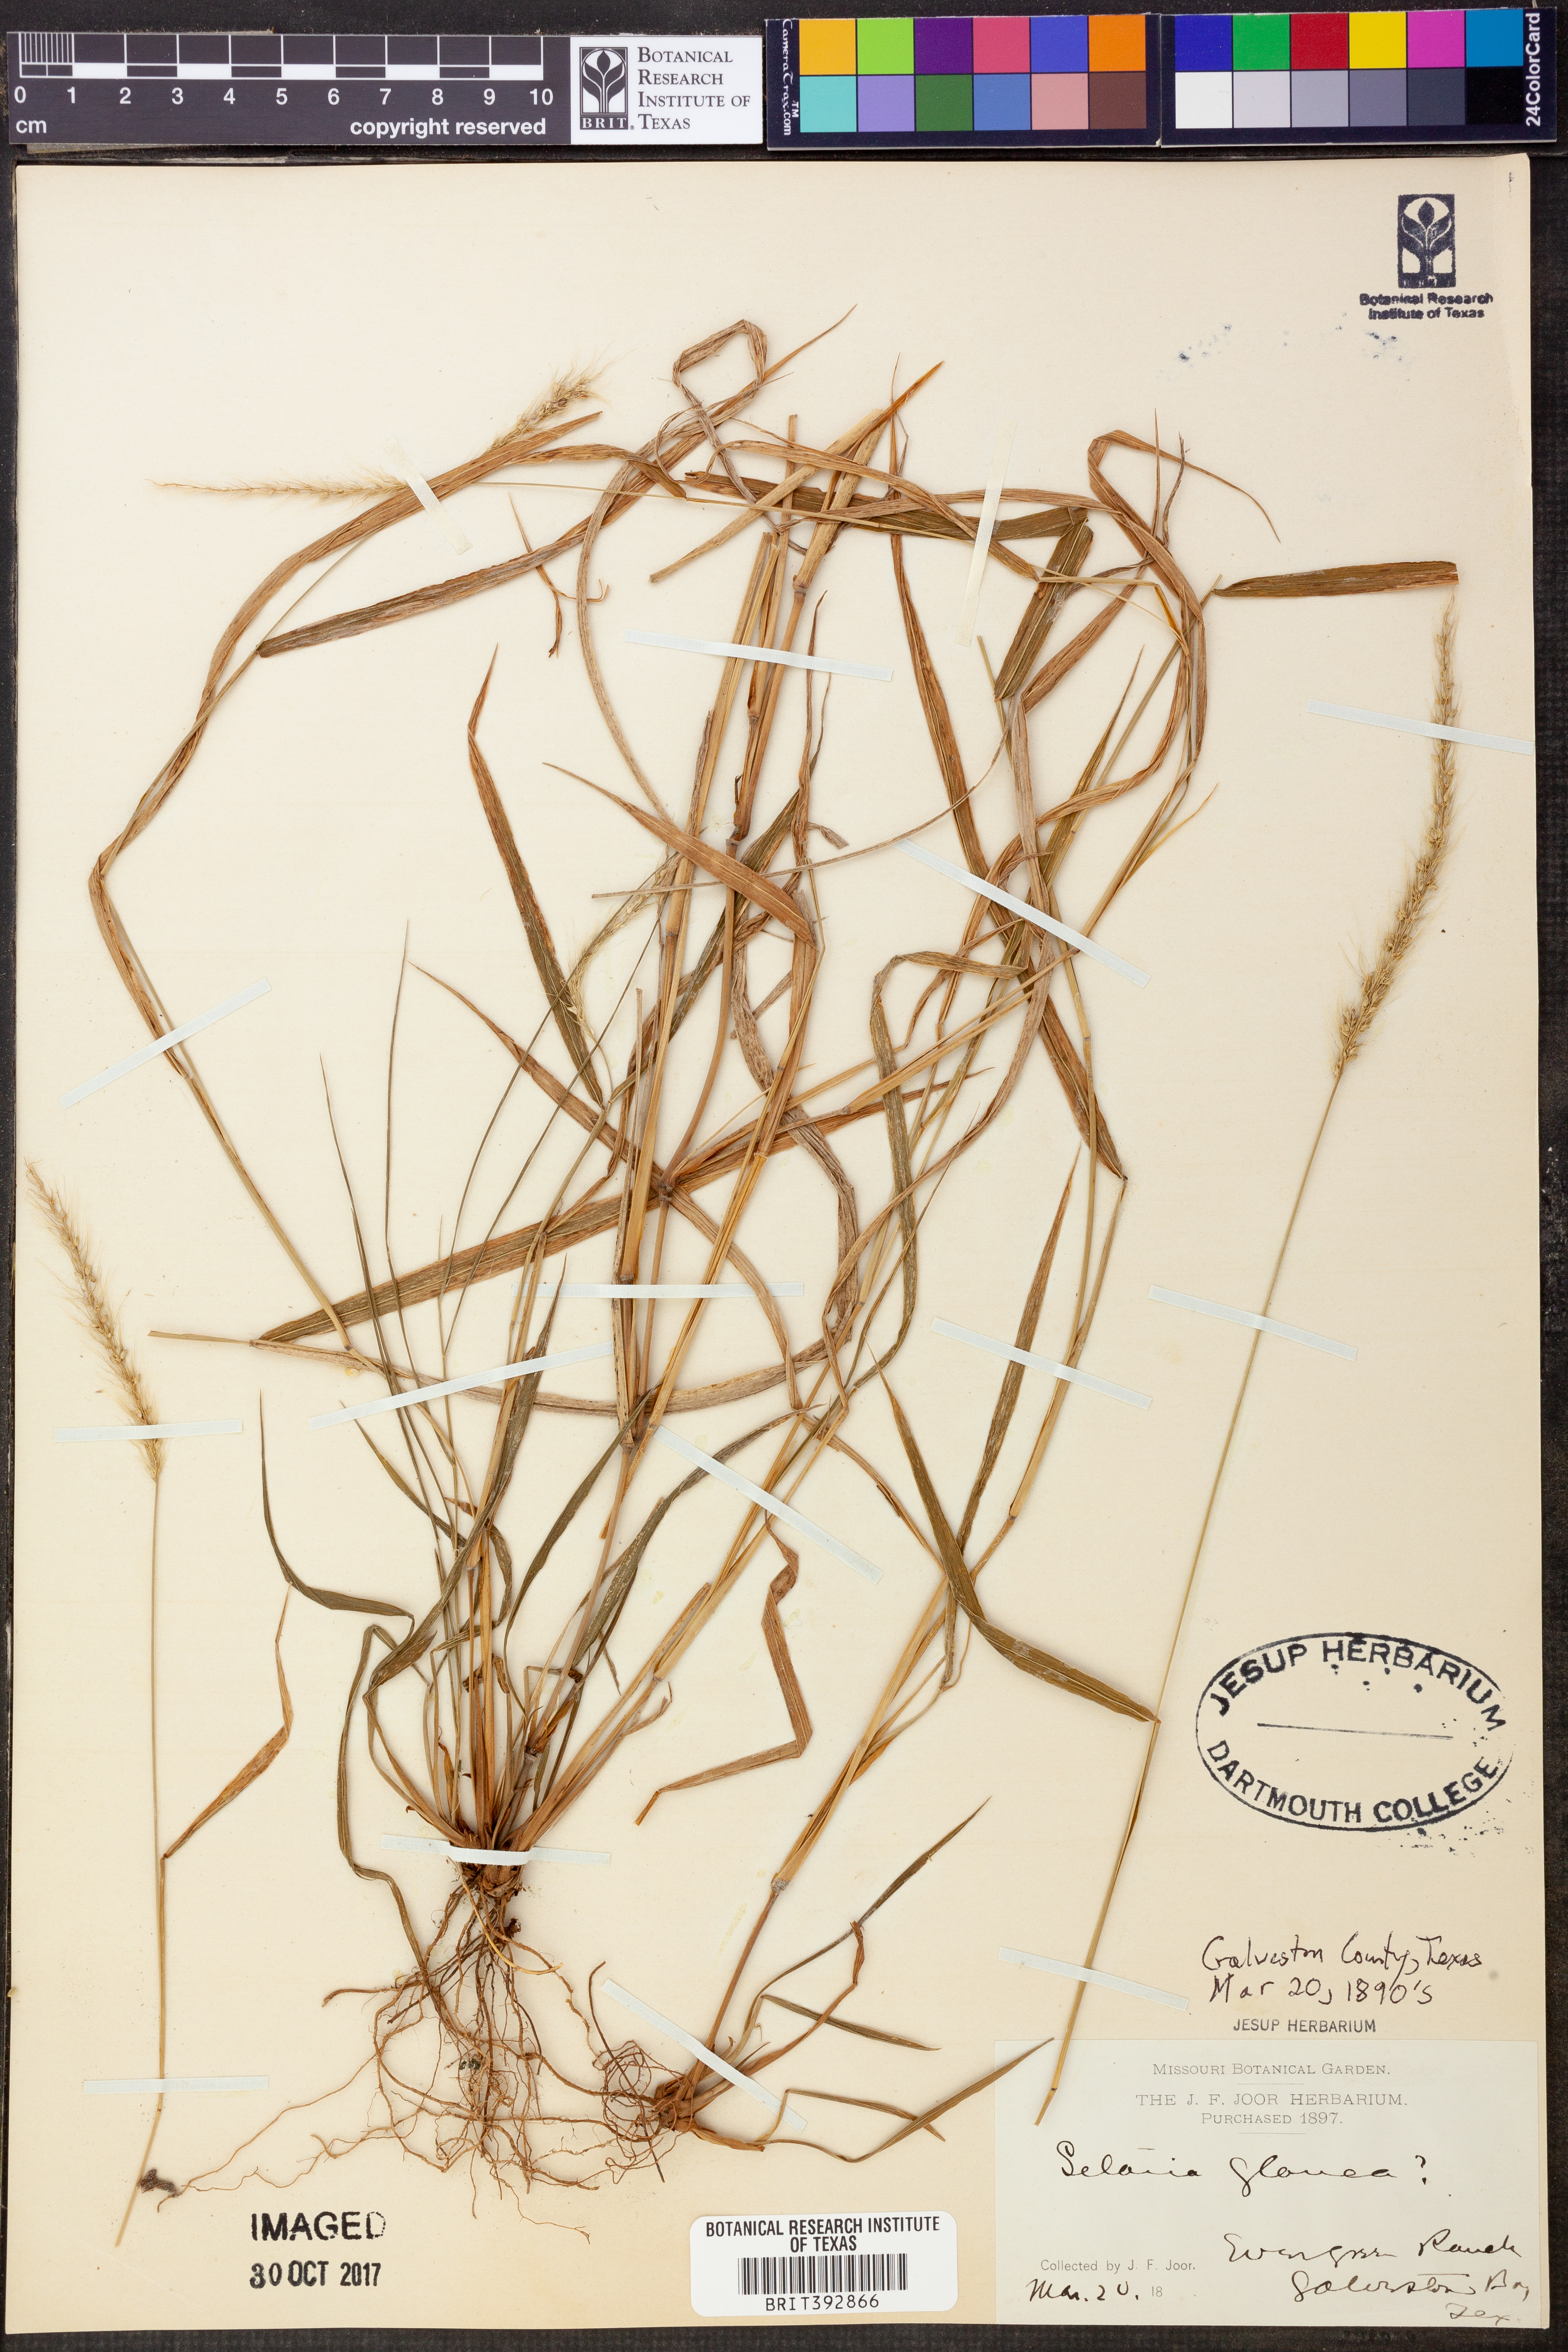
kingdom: Plantae
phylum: Tracheophyta
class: Magnoliopsida
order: Celastrales
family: Celastraceae
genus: Elaeodendron
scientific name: Elaeodendron glaucum
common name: Ceylon-tea
